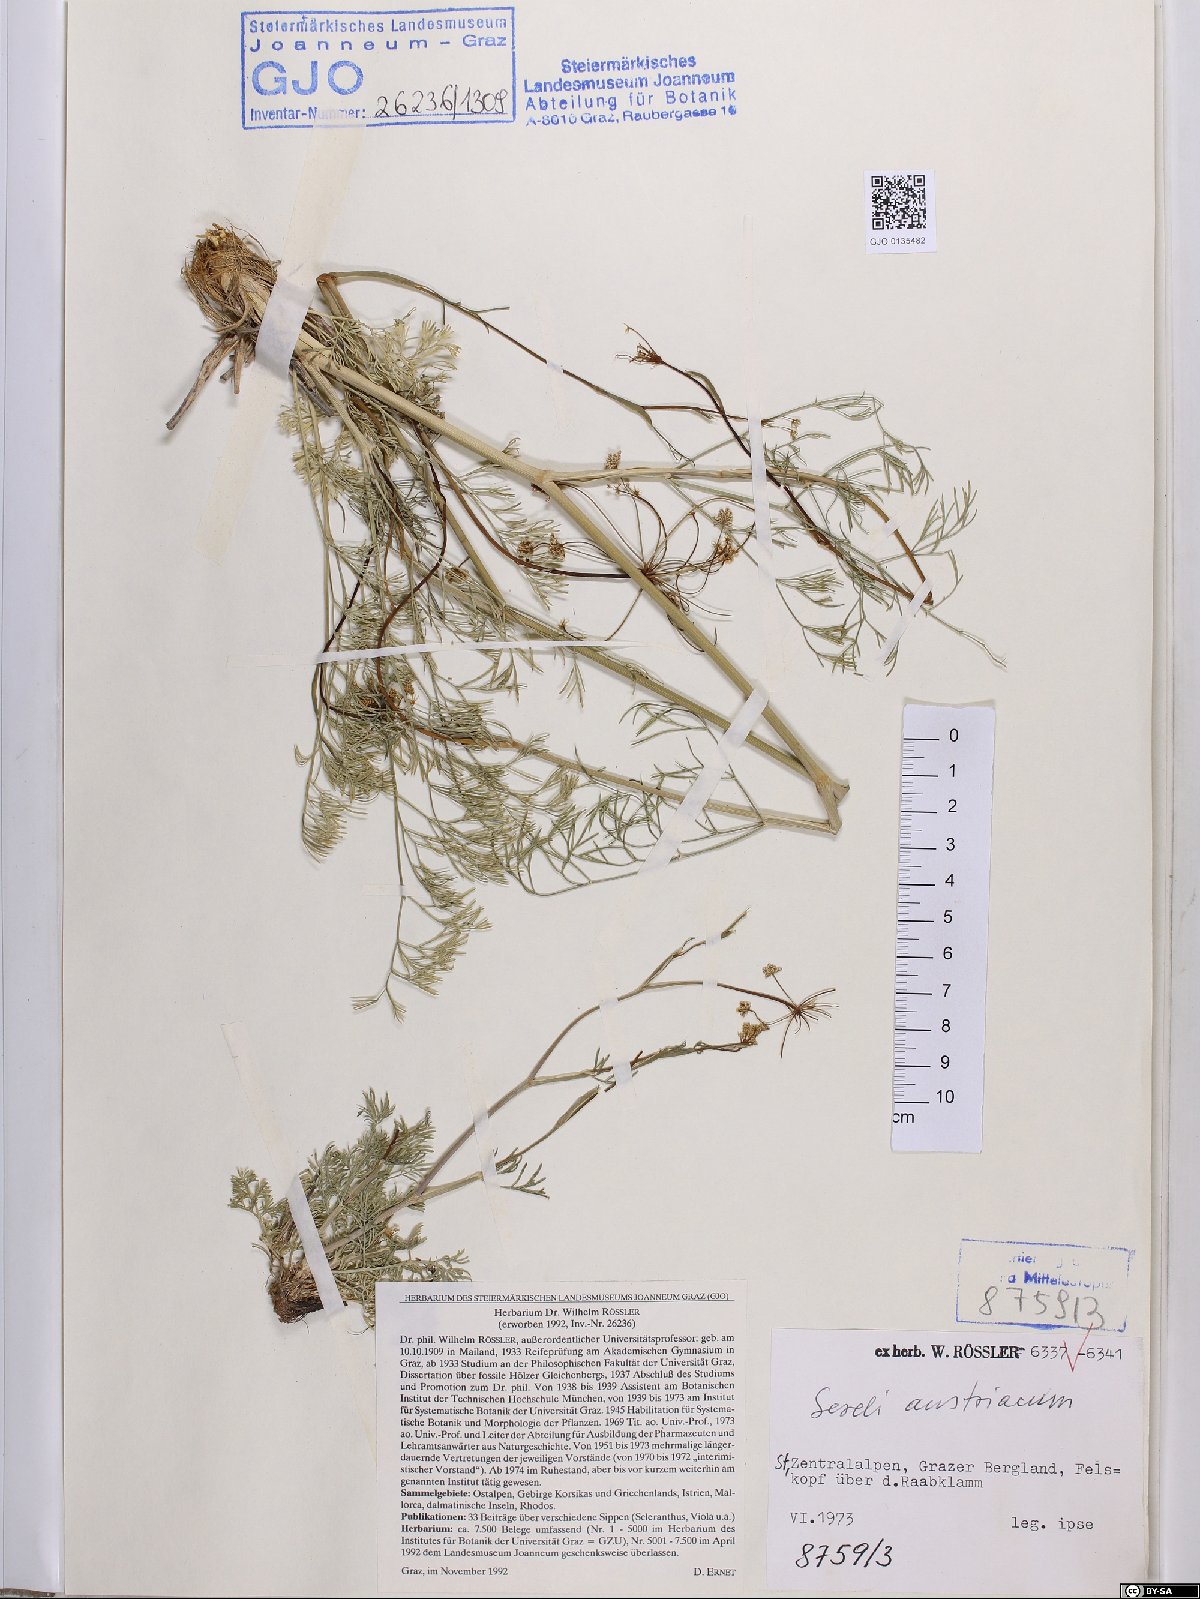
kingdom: Plantae
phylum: Tracheophyta
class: Magnoliopsida
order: Apiales
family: Apiaceae
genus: Seseli
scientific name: Seseli austriacum
